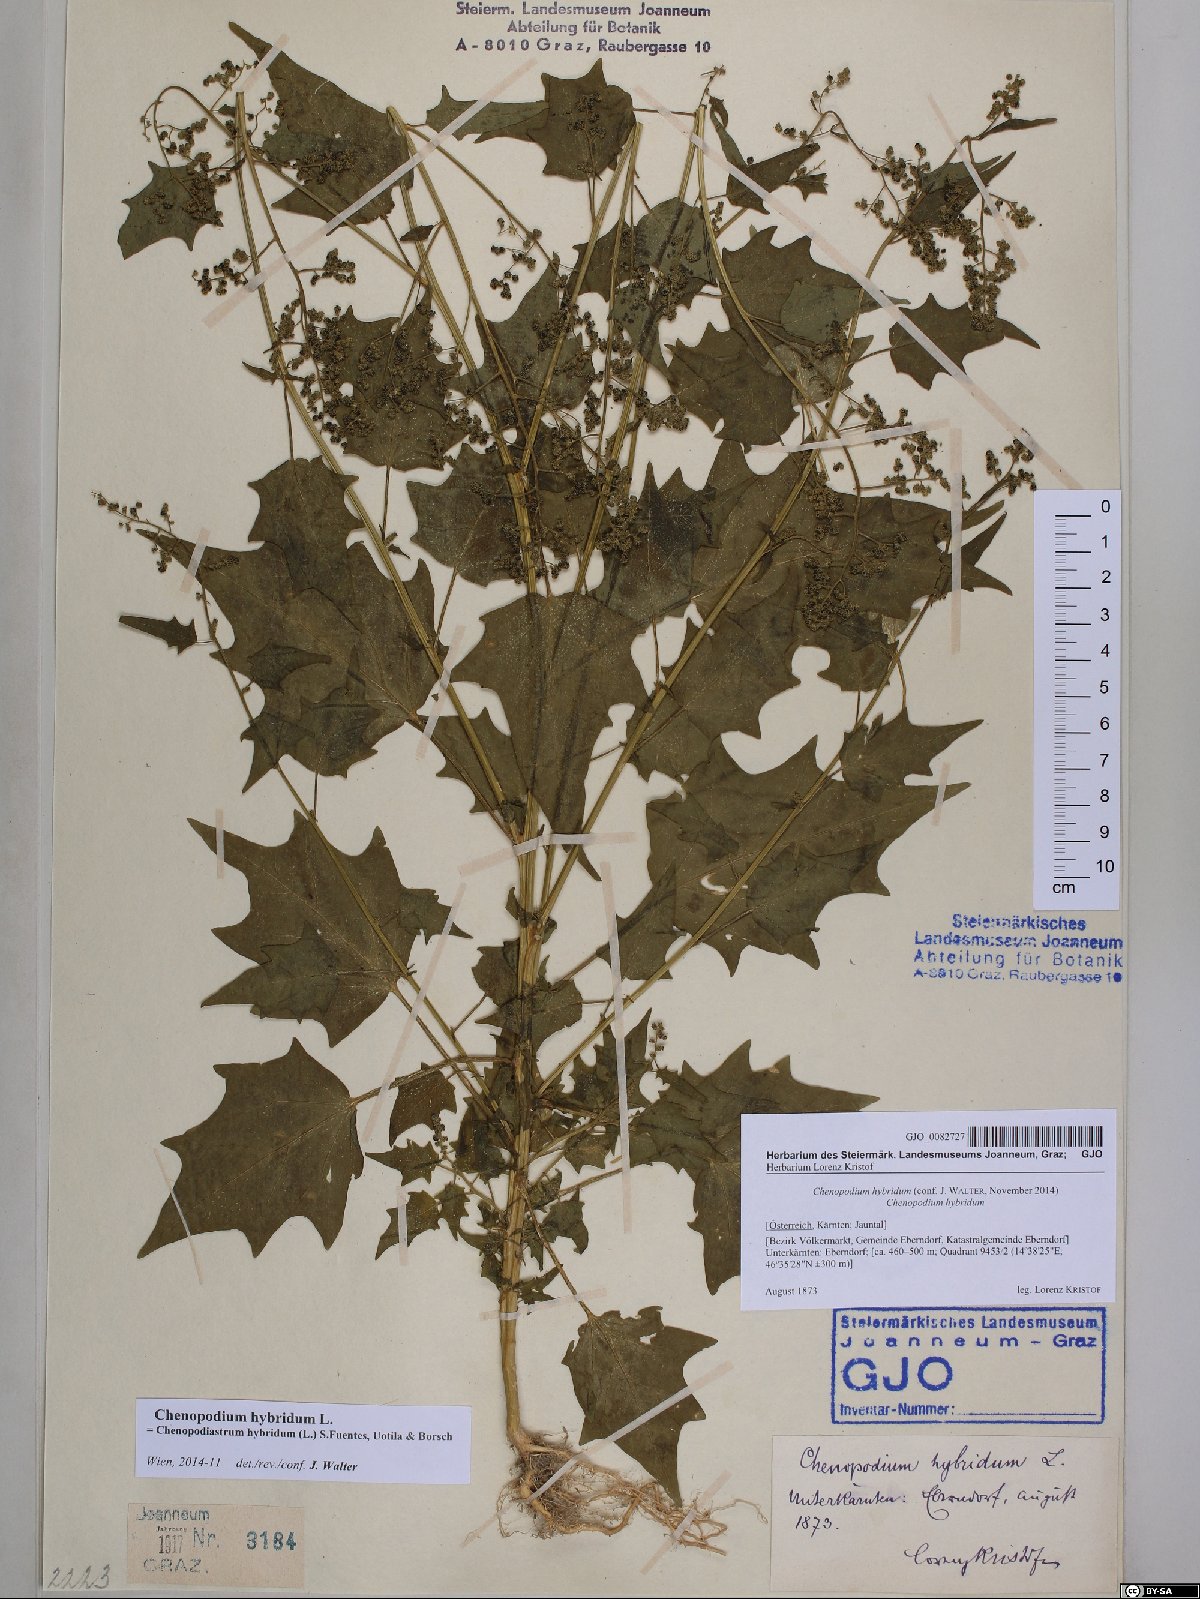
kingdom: Plantae
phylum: Tracheophyta
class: Magnoliopsida
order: Caryophyllales
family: Amaranthaceae
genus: Chenopodiastrum
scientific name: Chenopodiastrum hybridum
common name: Mapleleaf goosefoot
